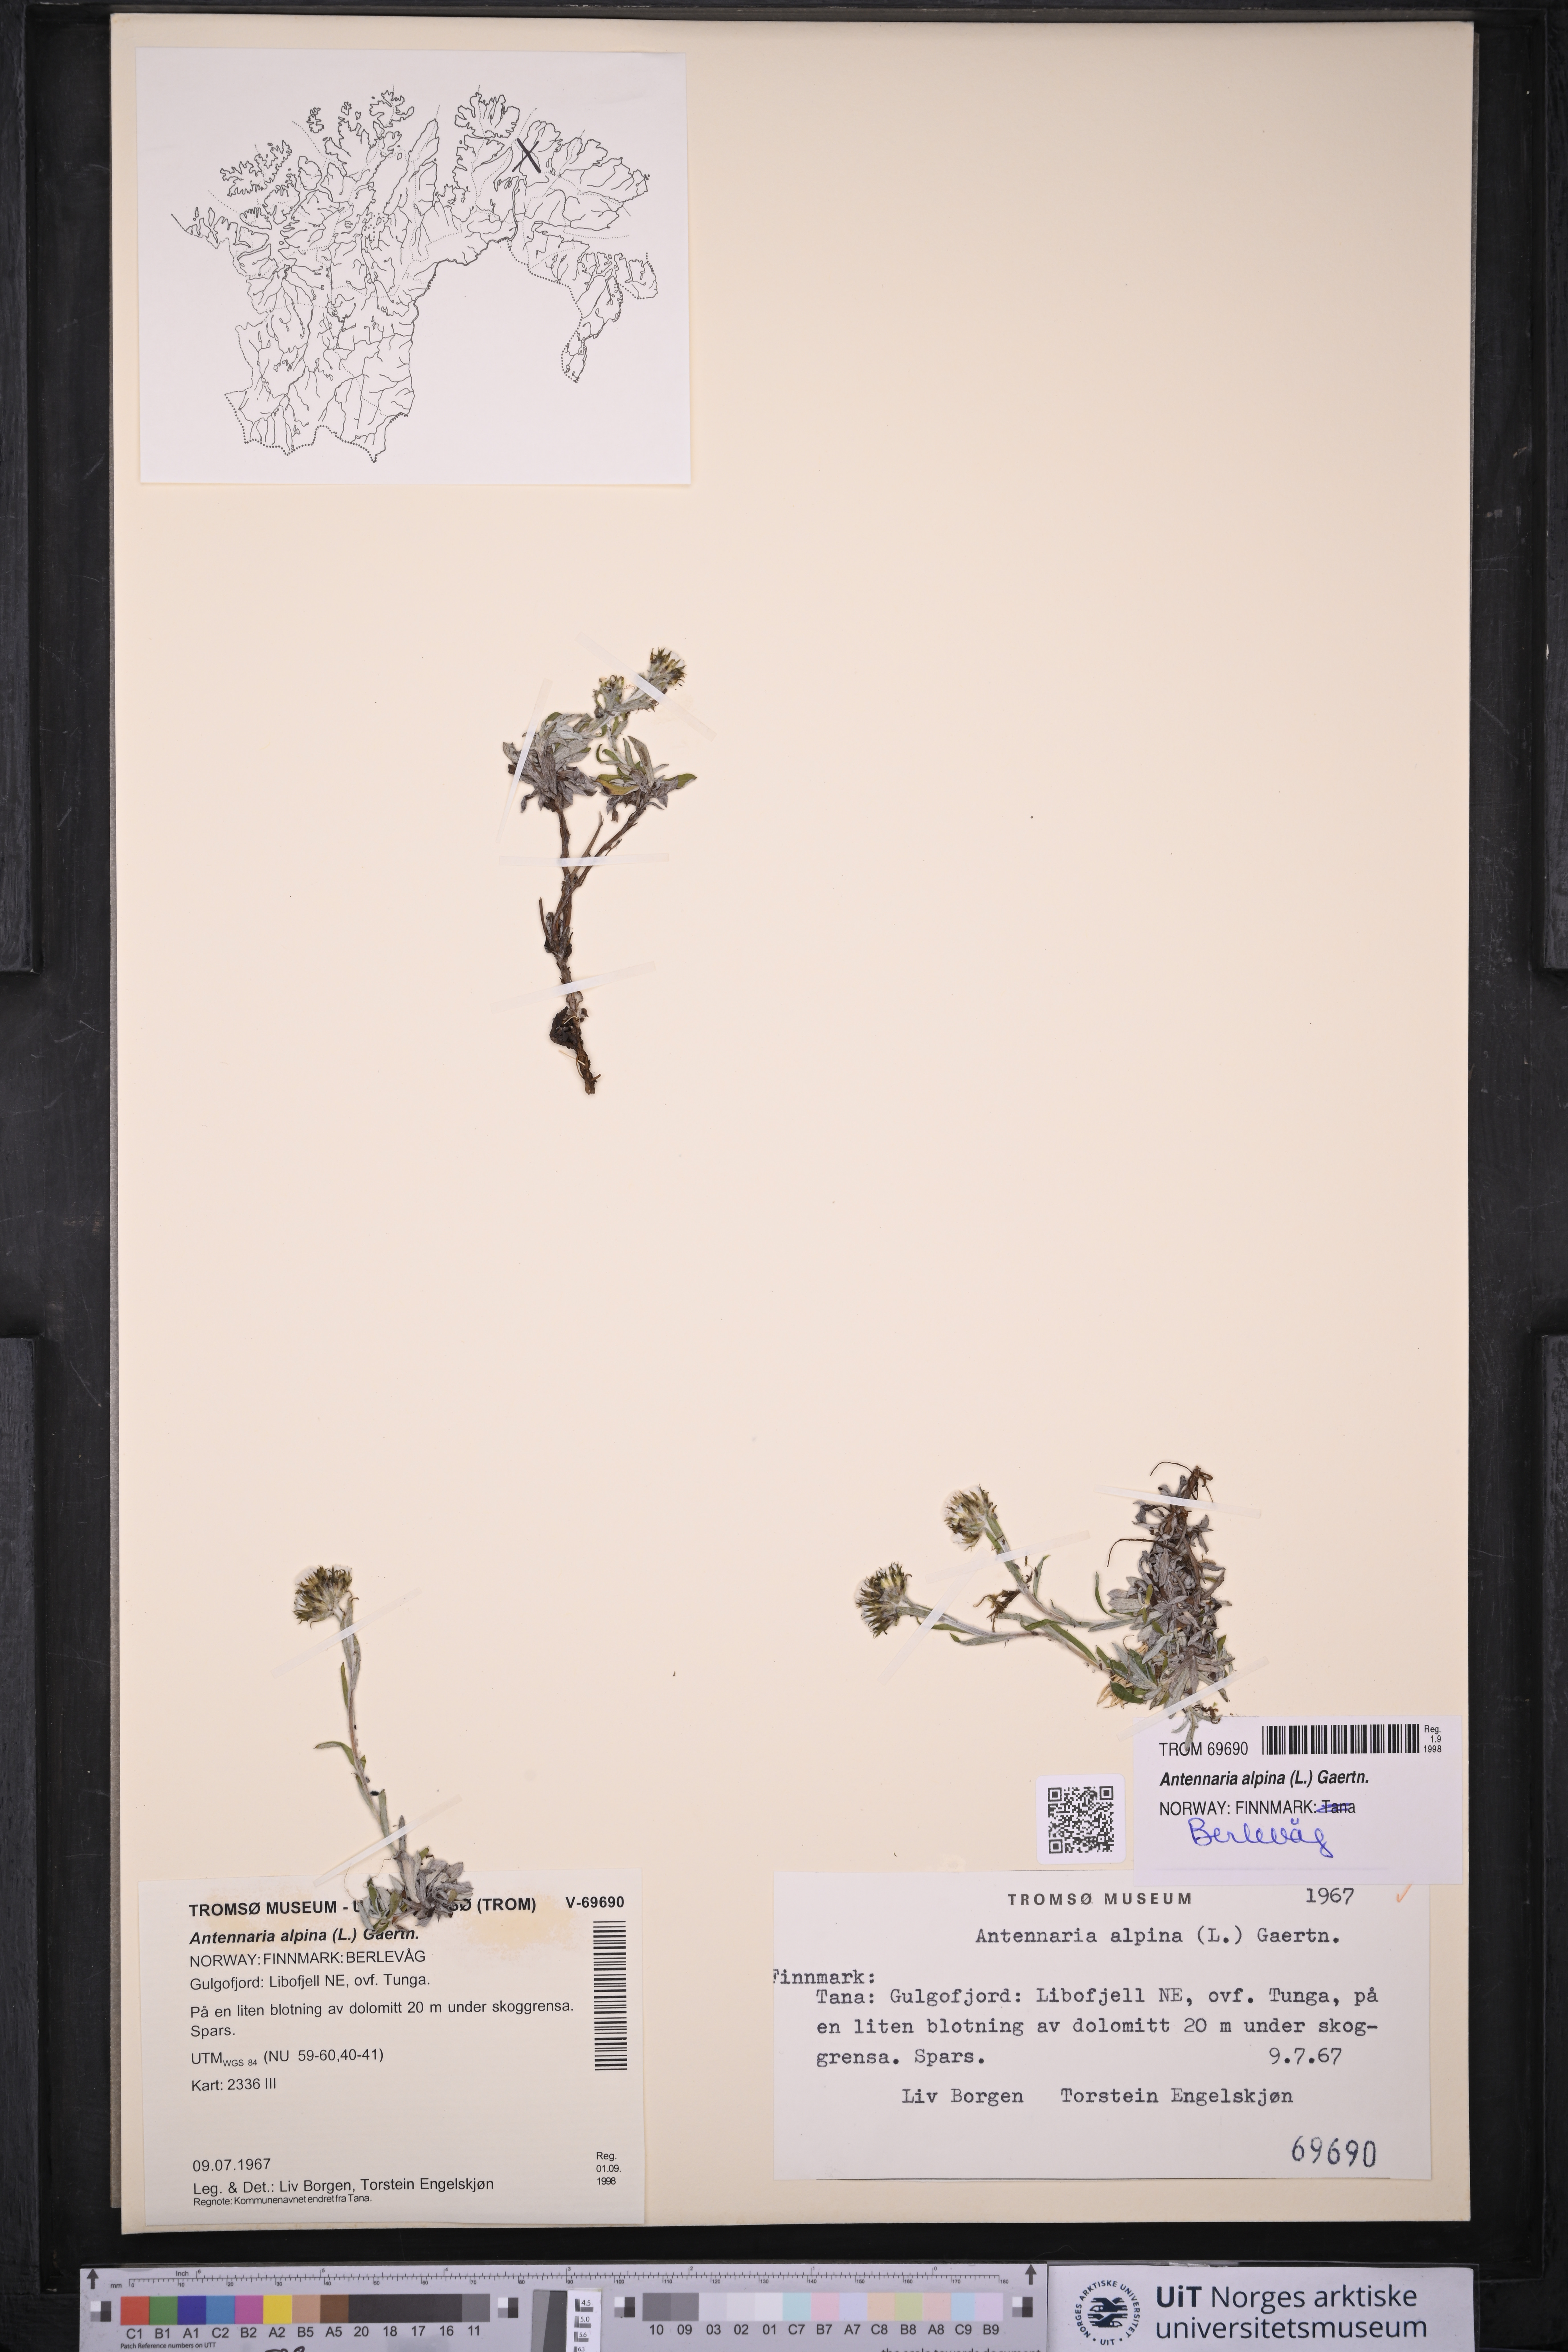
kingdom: Plantae
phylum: Tracheophyta
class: Magnoliopsida
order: Asterales
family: Asteraceae
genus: Antennaria
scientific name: Antennaria alpina
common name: Alpine pussytoes
